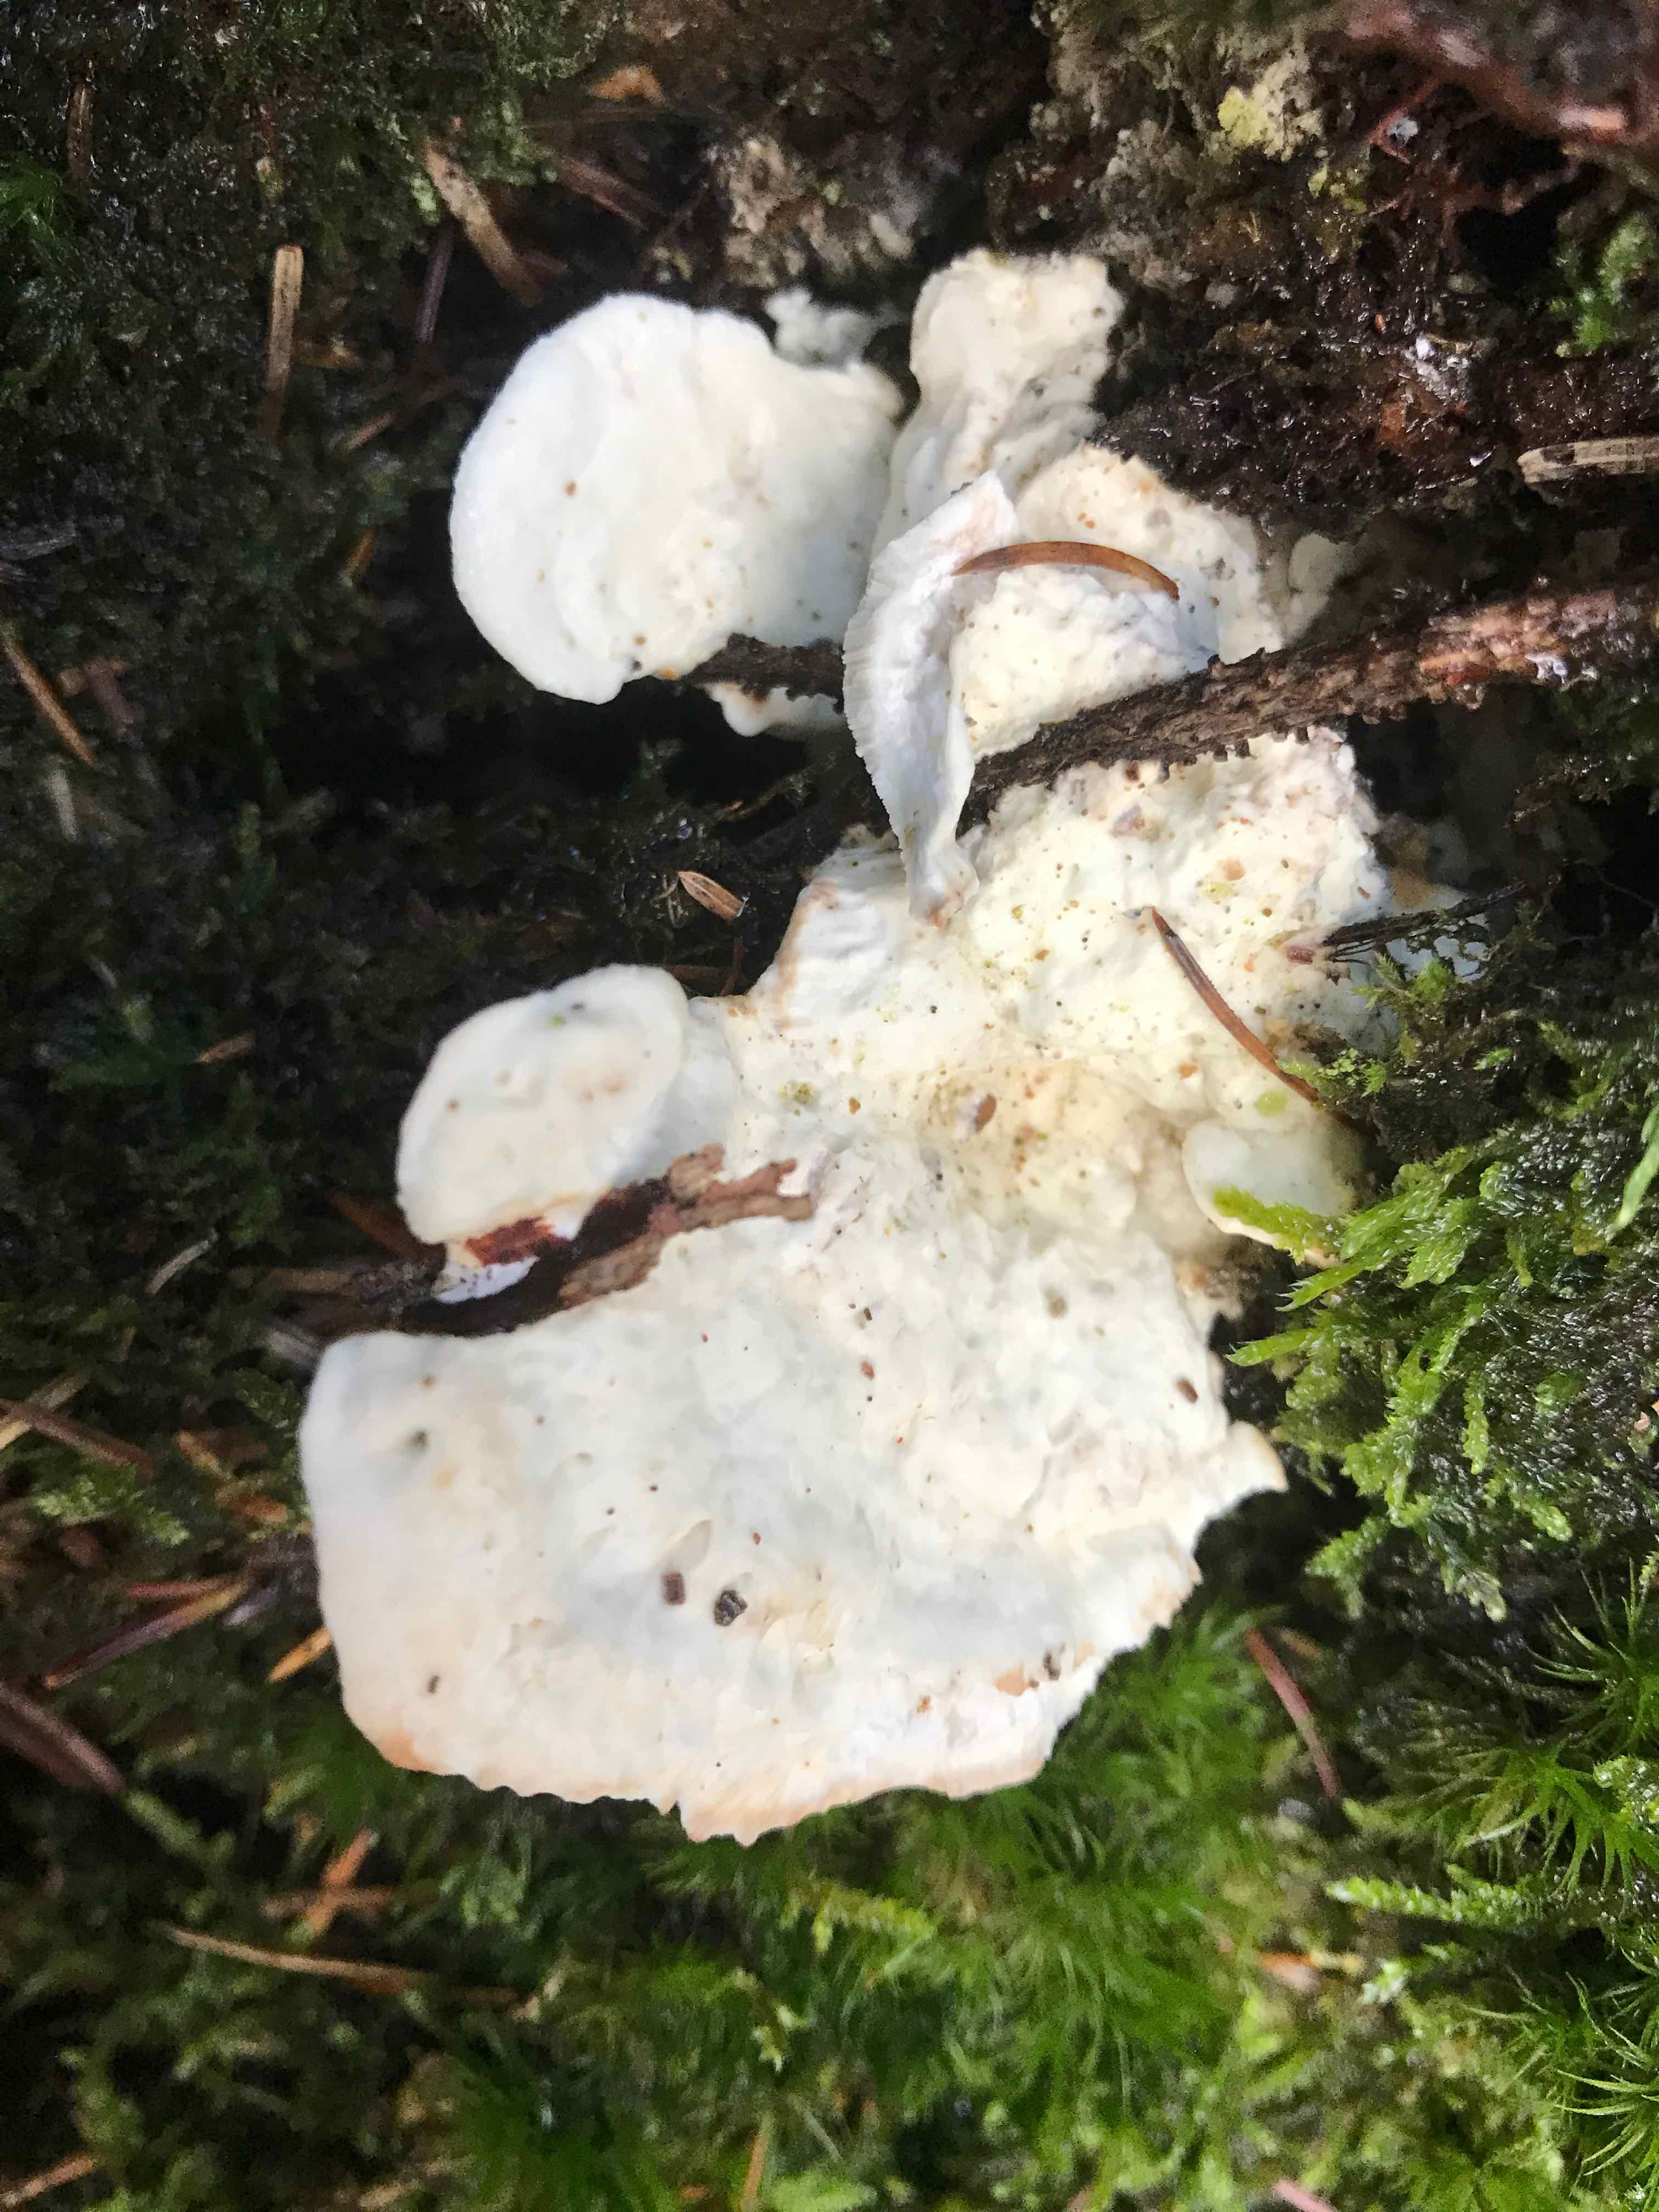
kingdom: Fungi
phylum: Basidiomycota
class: Agaricomycetes
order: Polyporales
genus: Amaropostia
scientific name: Amaropostia stiptica
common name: bitter kødporesvamp
